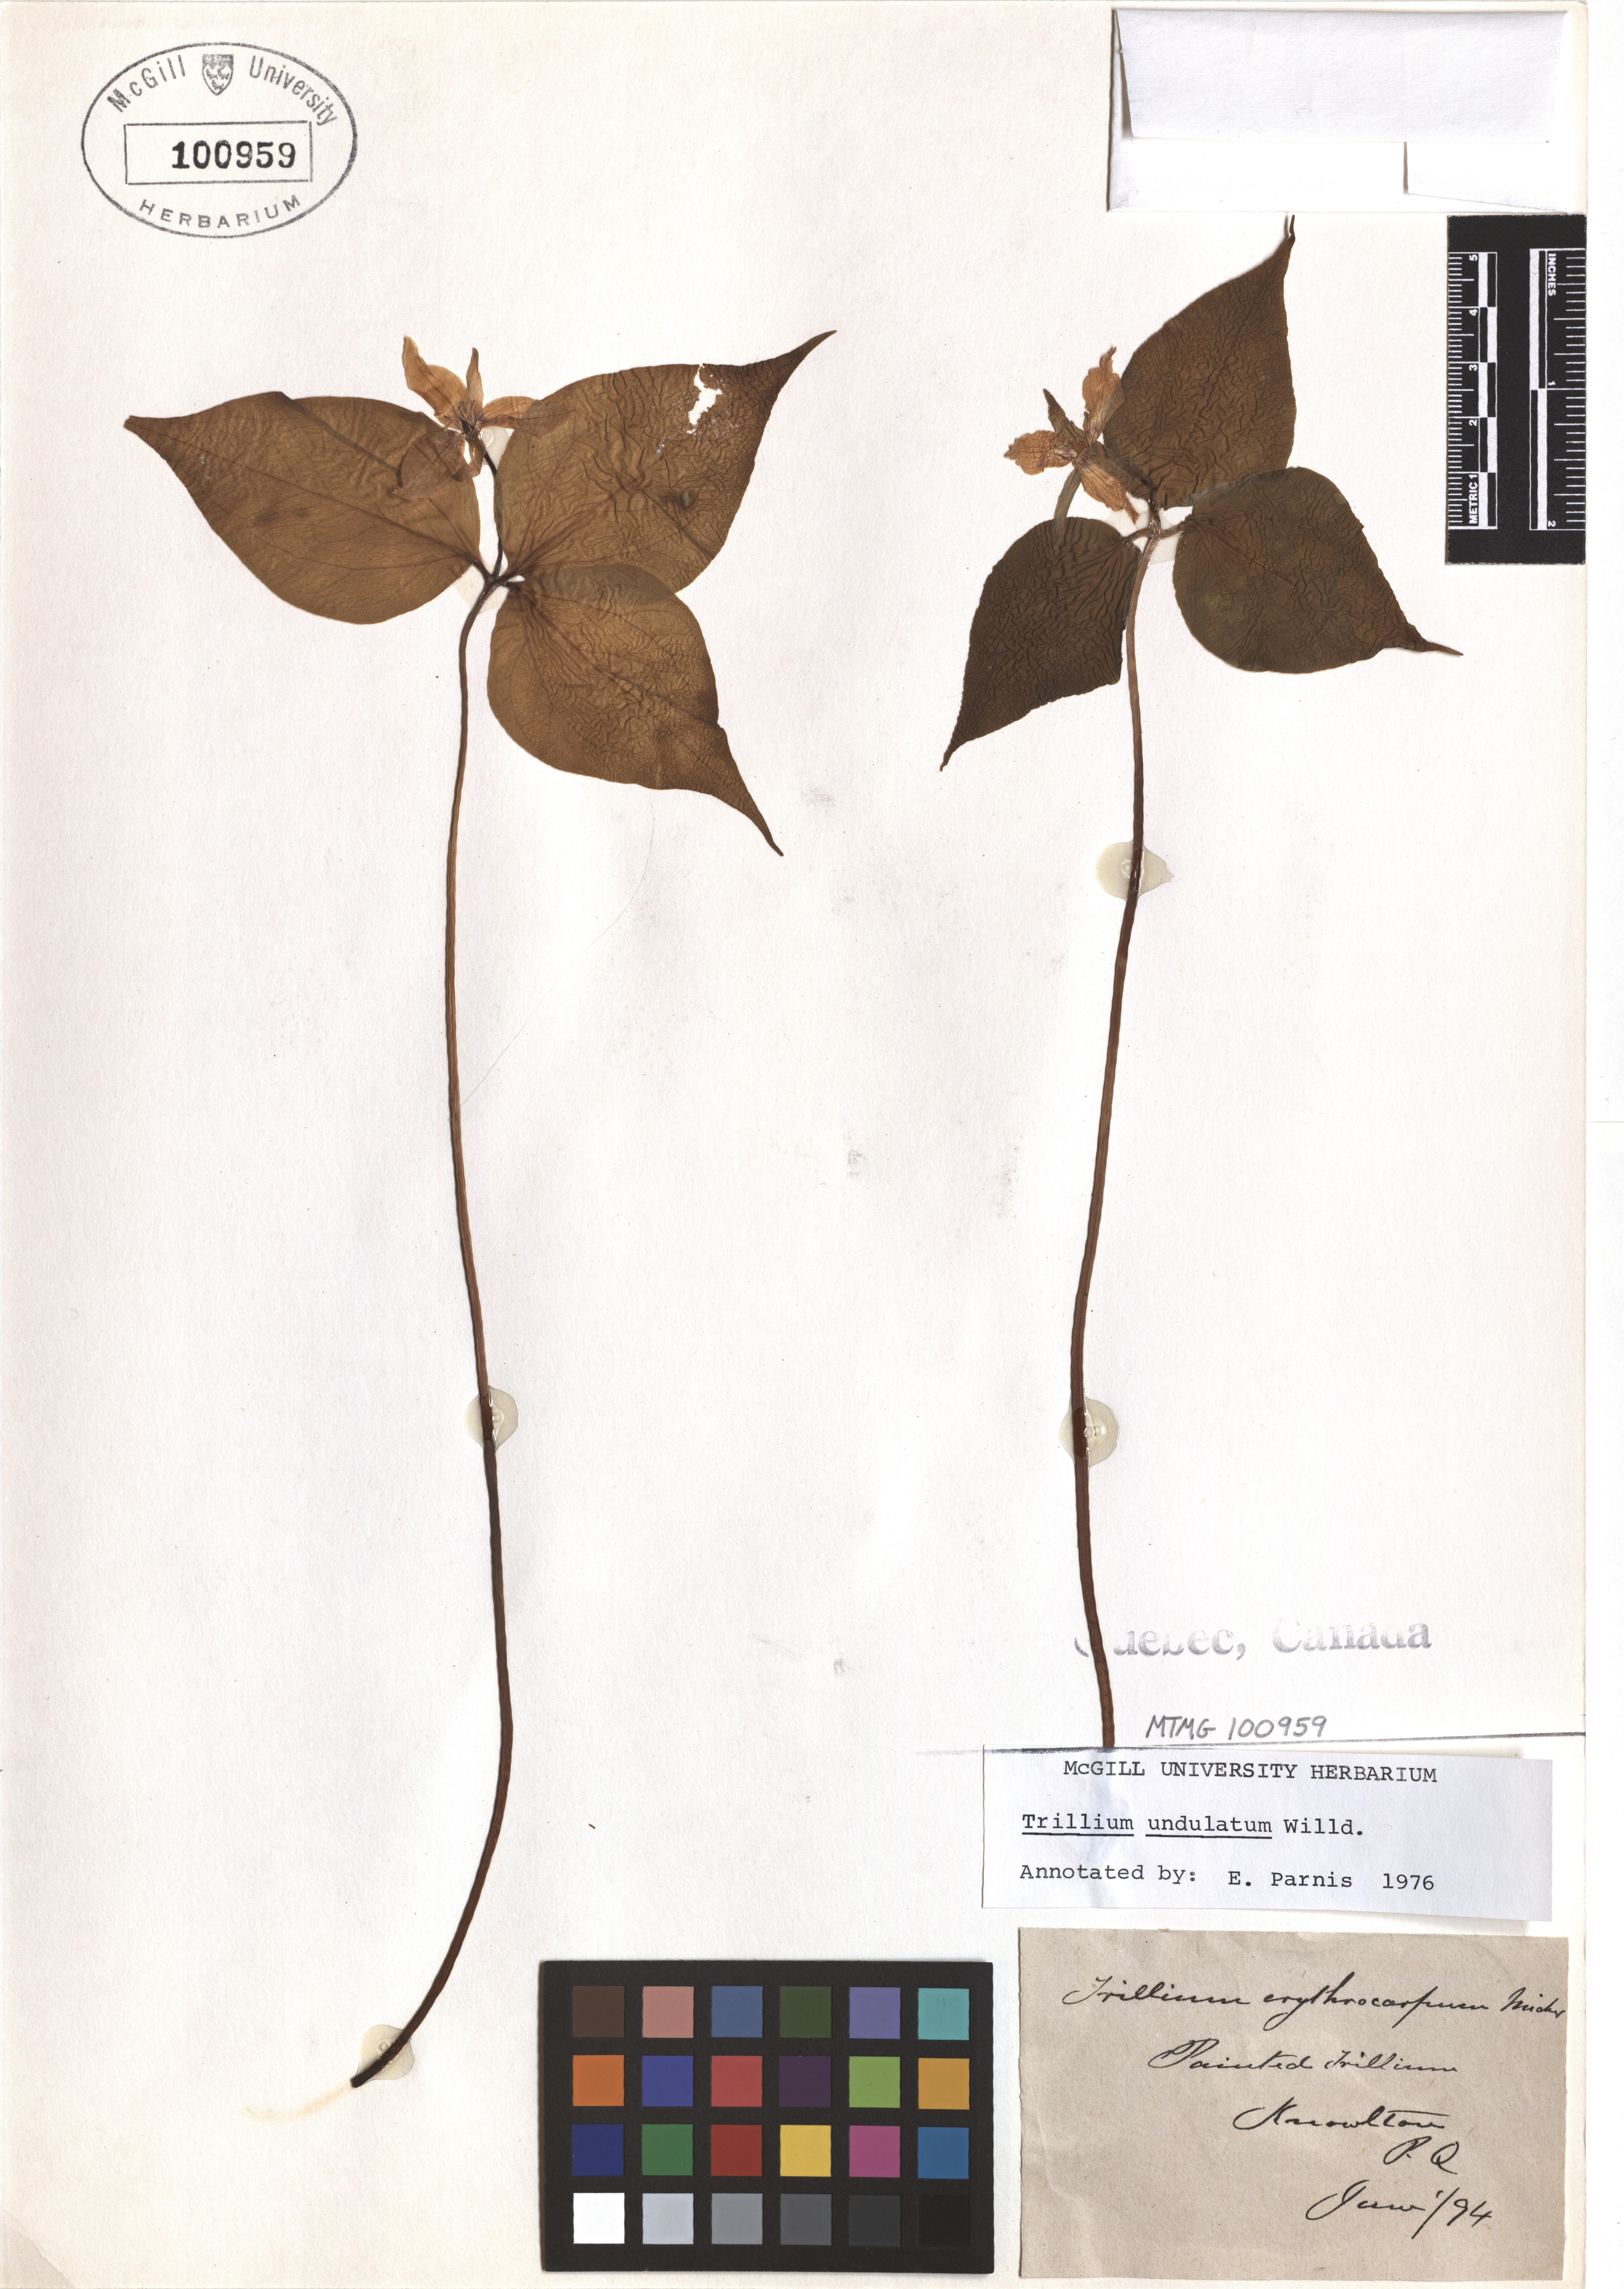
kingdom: Plantae
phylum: Tracheophyta
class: Liliopsida
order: Liliales
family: Melanthiaceae
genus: Trillium
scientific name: Trillium undulatum
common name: Paint trillium
